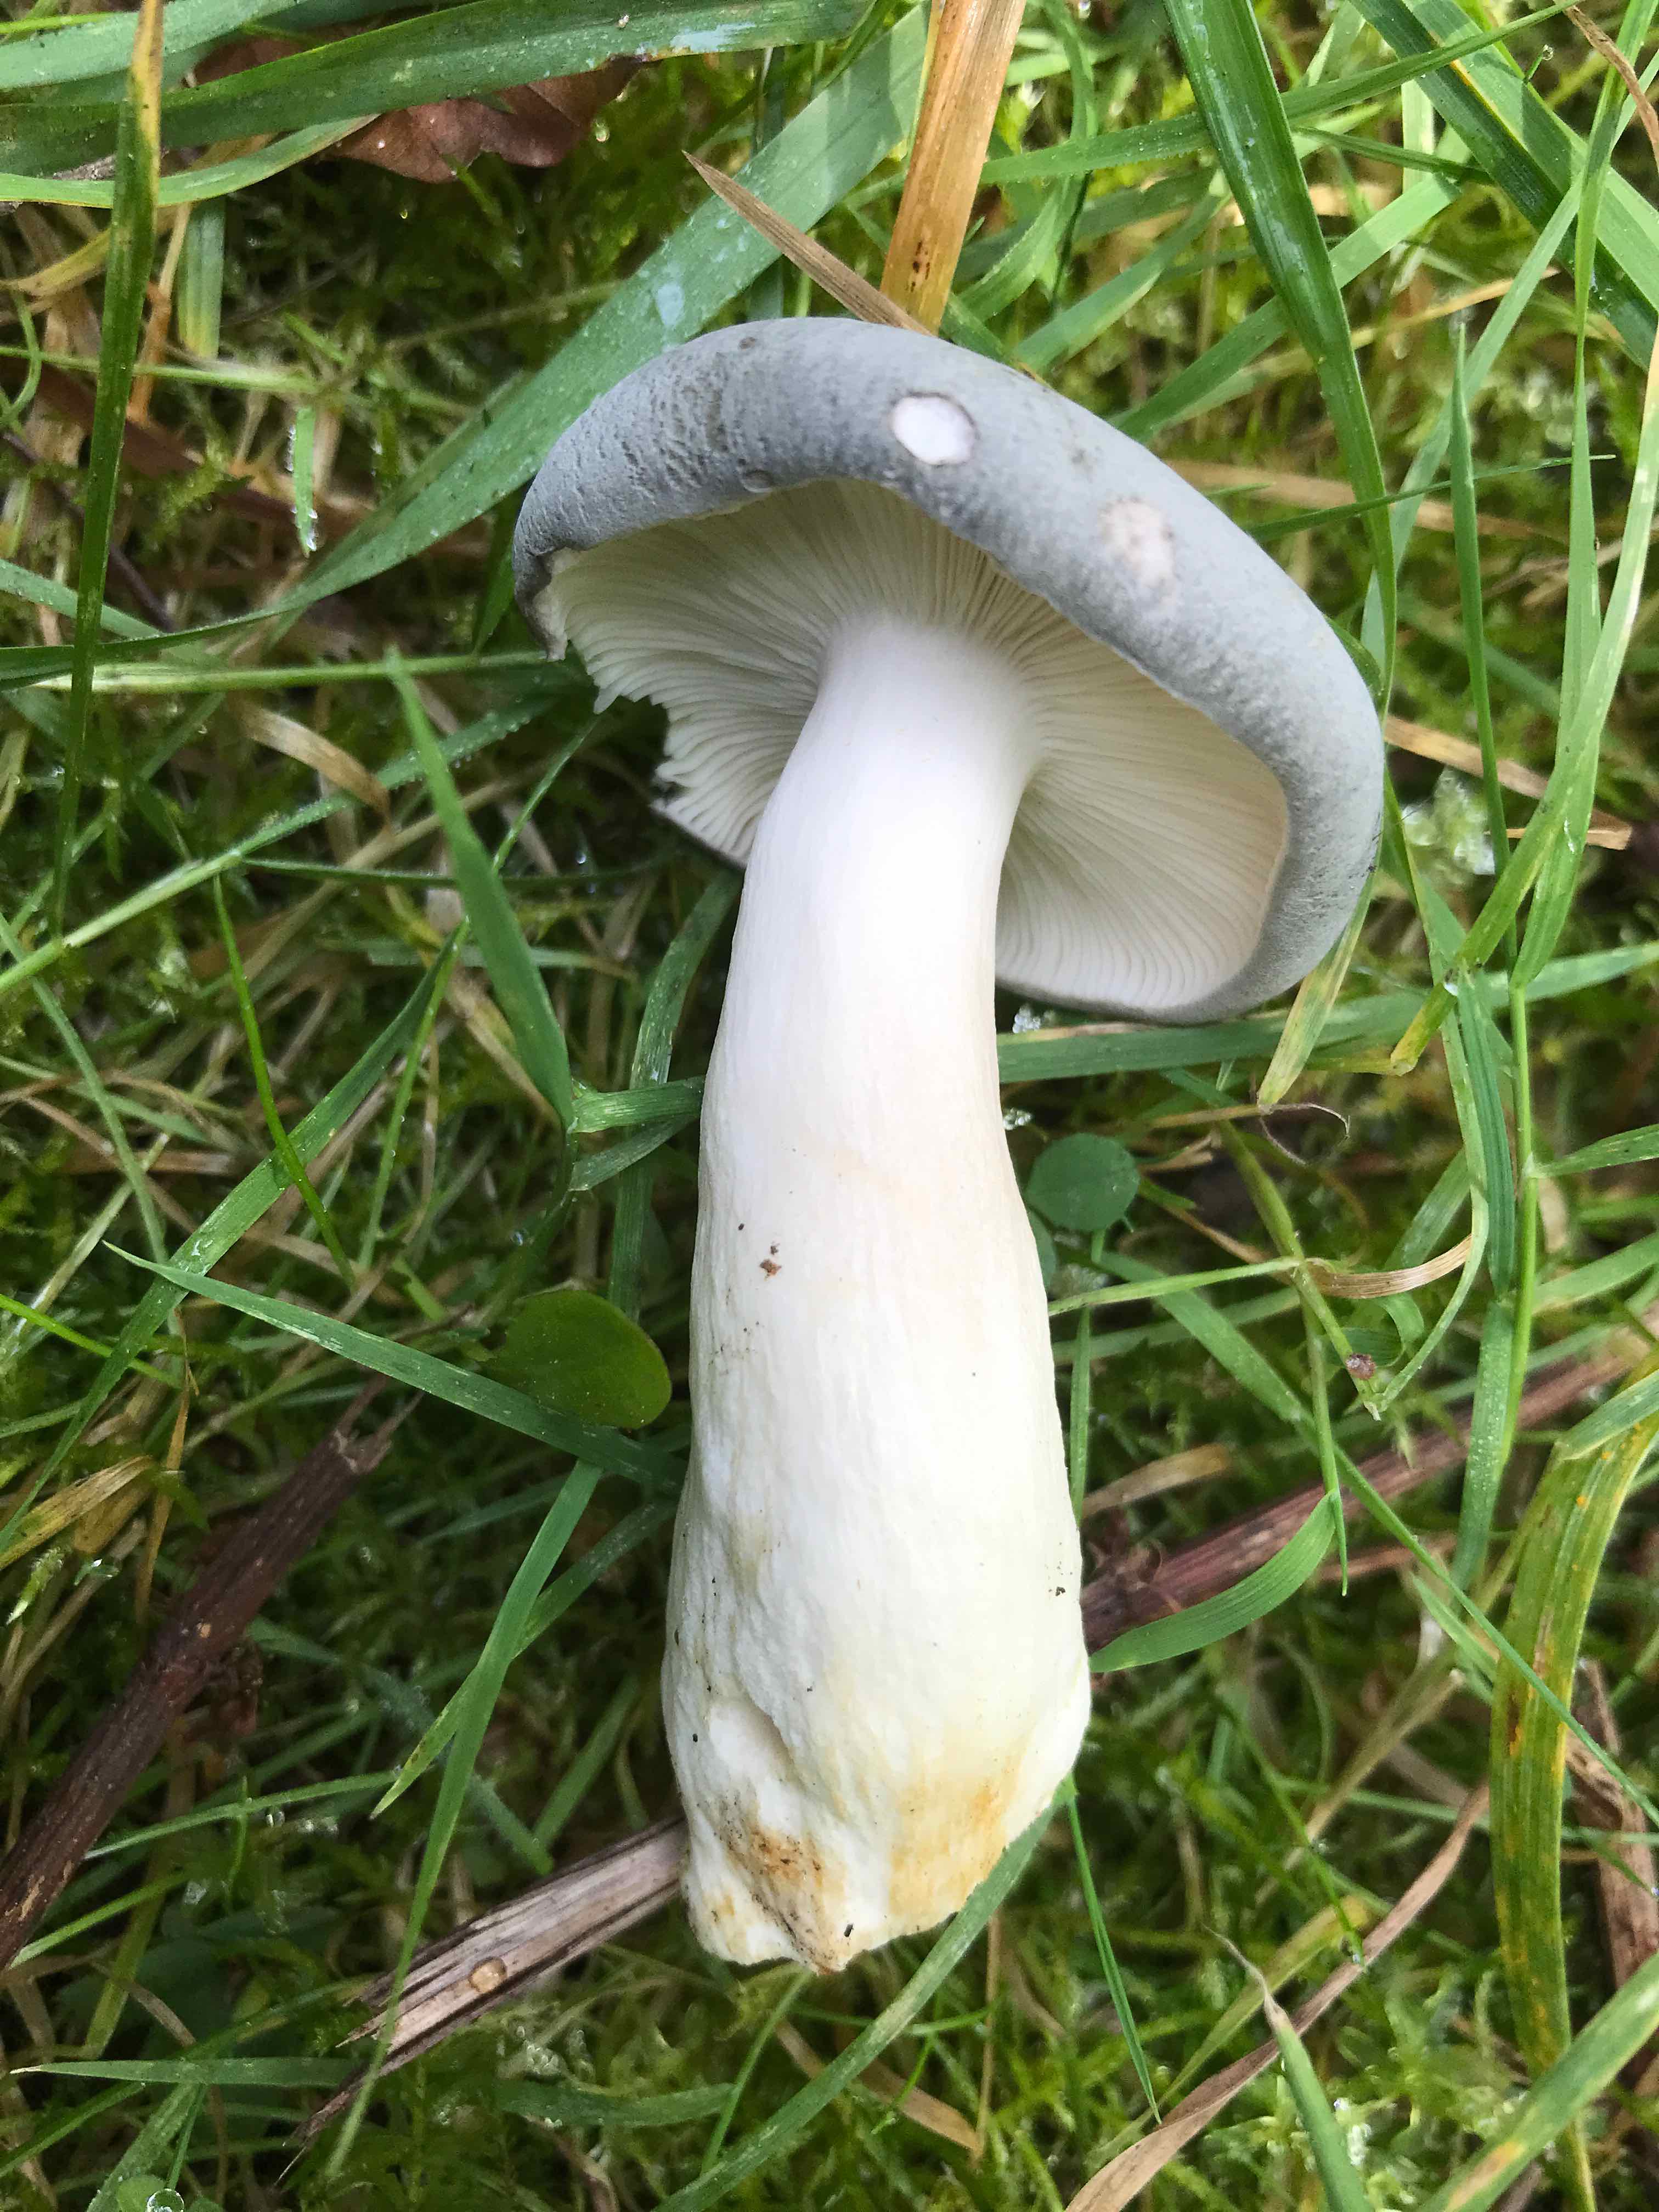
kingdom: Fungi
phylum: Basidiomycota
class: Agaricomycetes
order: Russulales
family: Russulaceae
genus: Russula
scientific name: Russula parazurea
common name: blågrå skørhat
